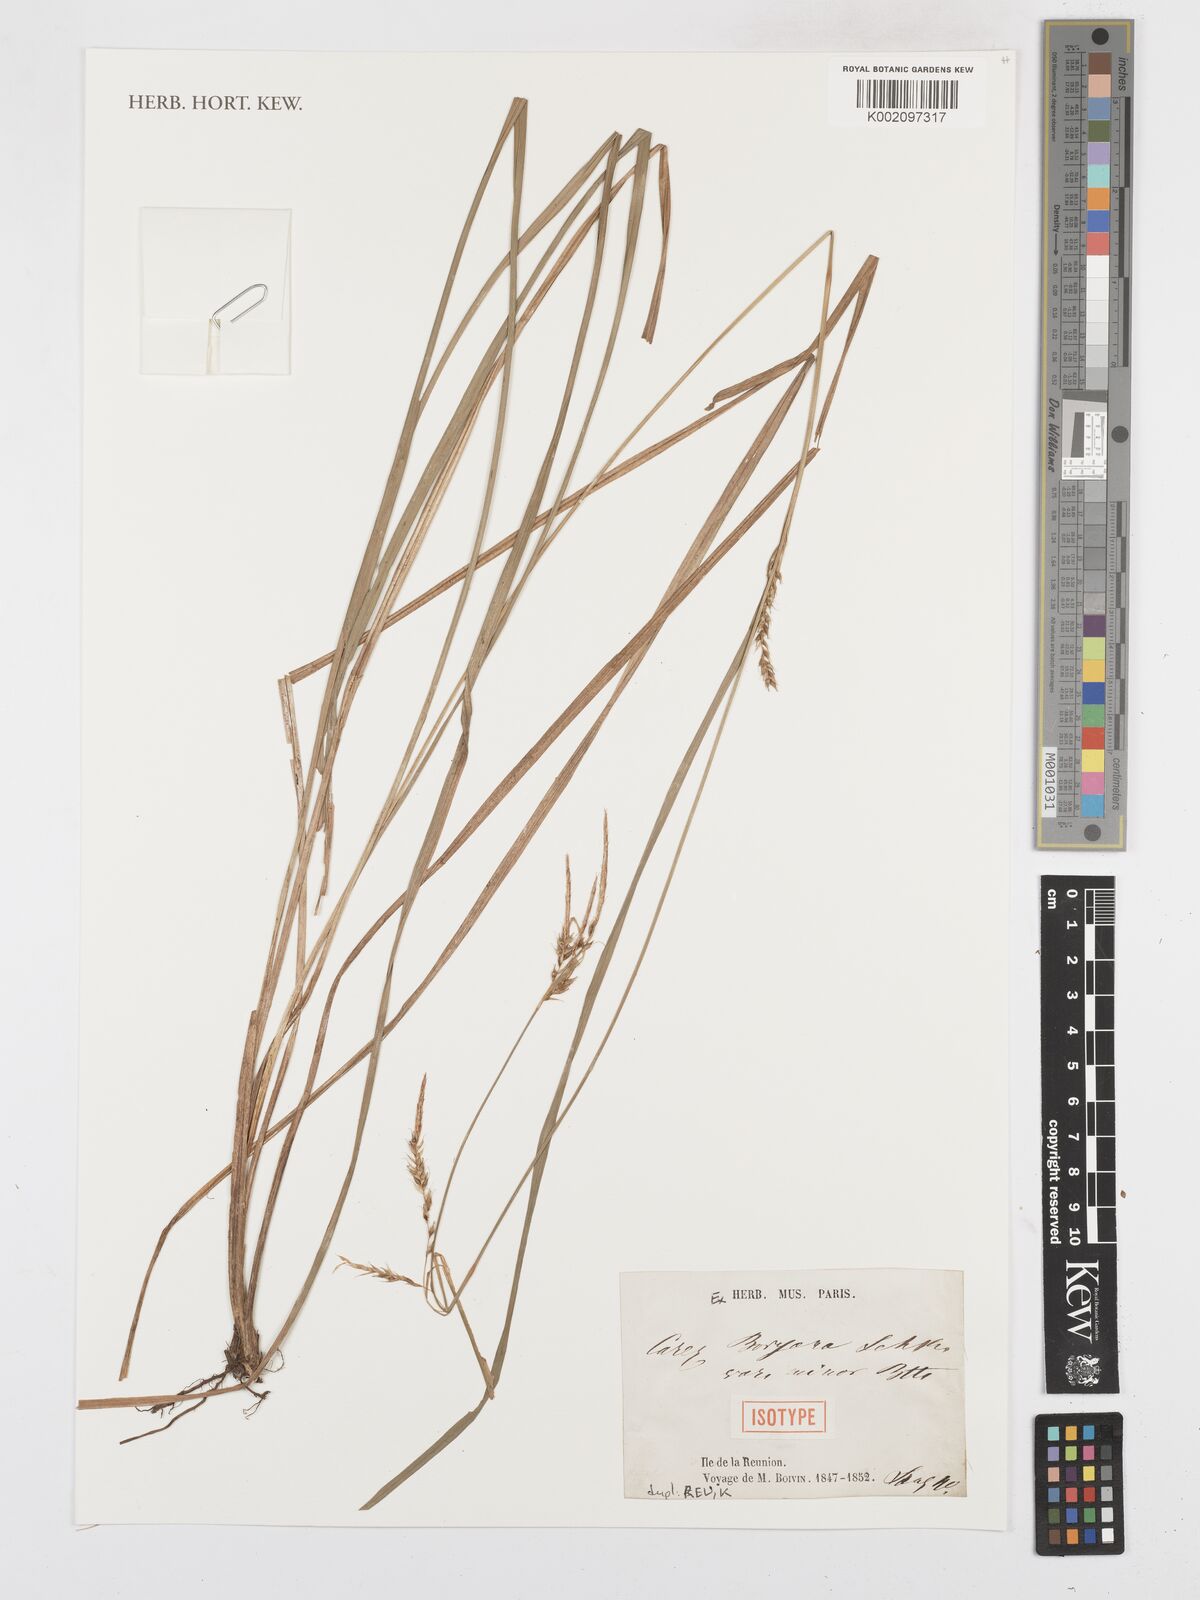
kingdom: Plantae
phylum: Tracheophyta
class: Liliopsida
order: Poales
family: Cyperaceae
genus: Carex
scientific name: Carex boryana
